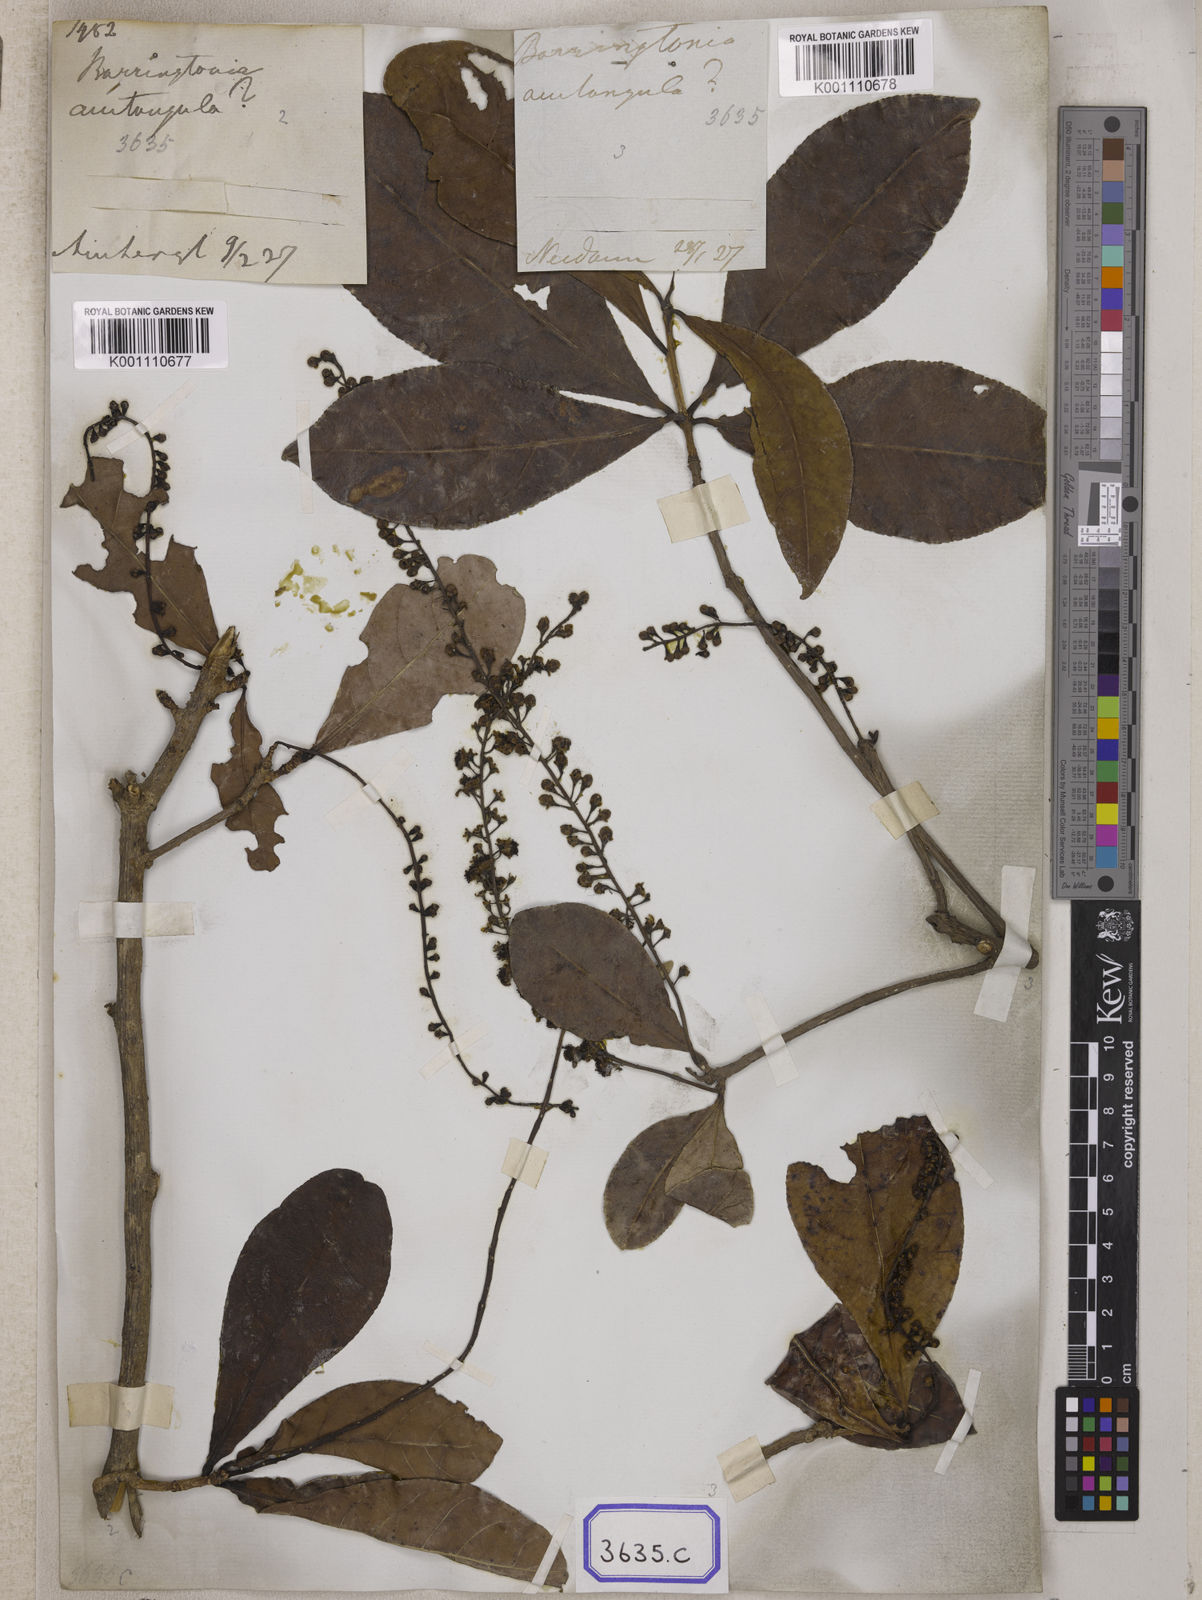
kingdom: Plantae
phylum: Tracheophyta
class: Magnoliopsida
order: Ericales
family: Lecythidaceae
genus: Barringtonia
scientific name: Barringtonia acutangula
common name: Freshwater mangrove
